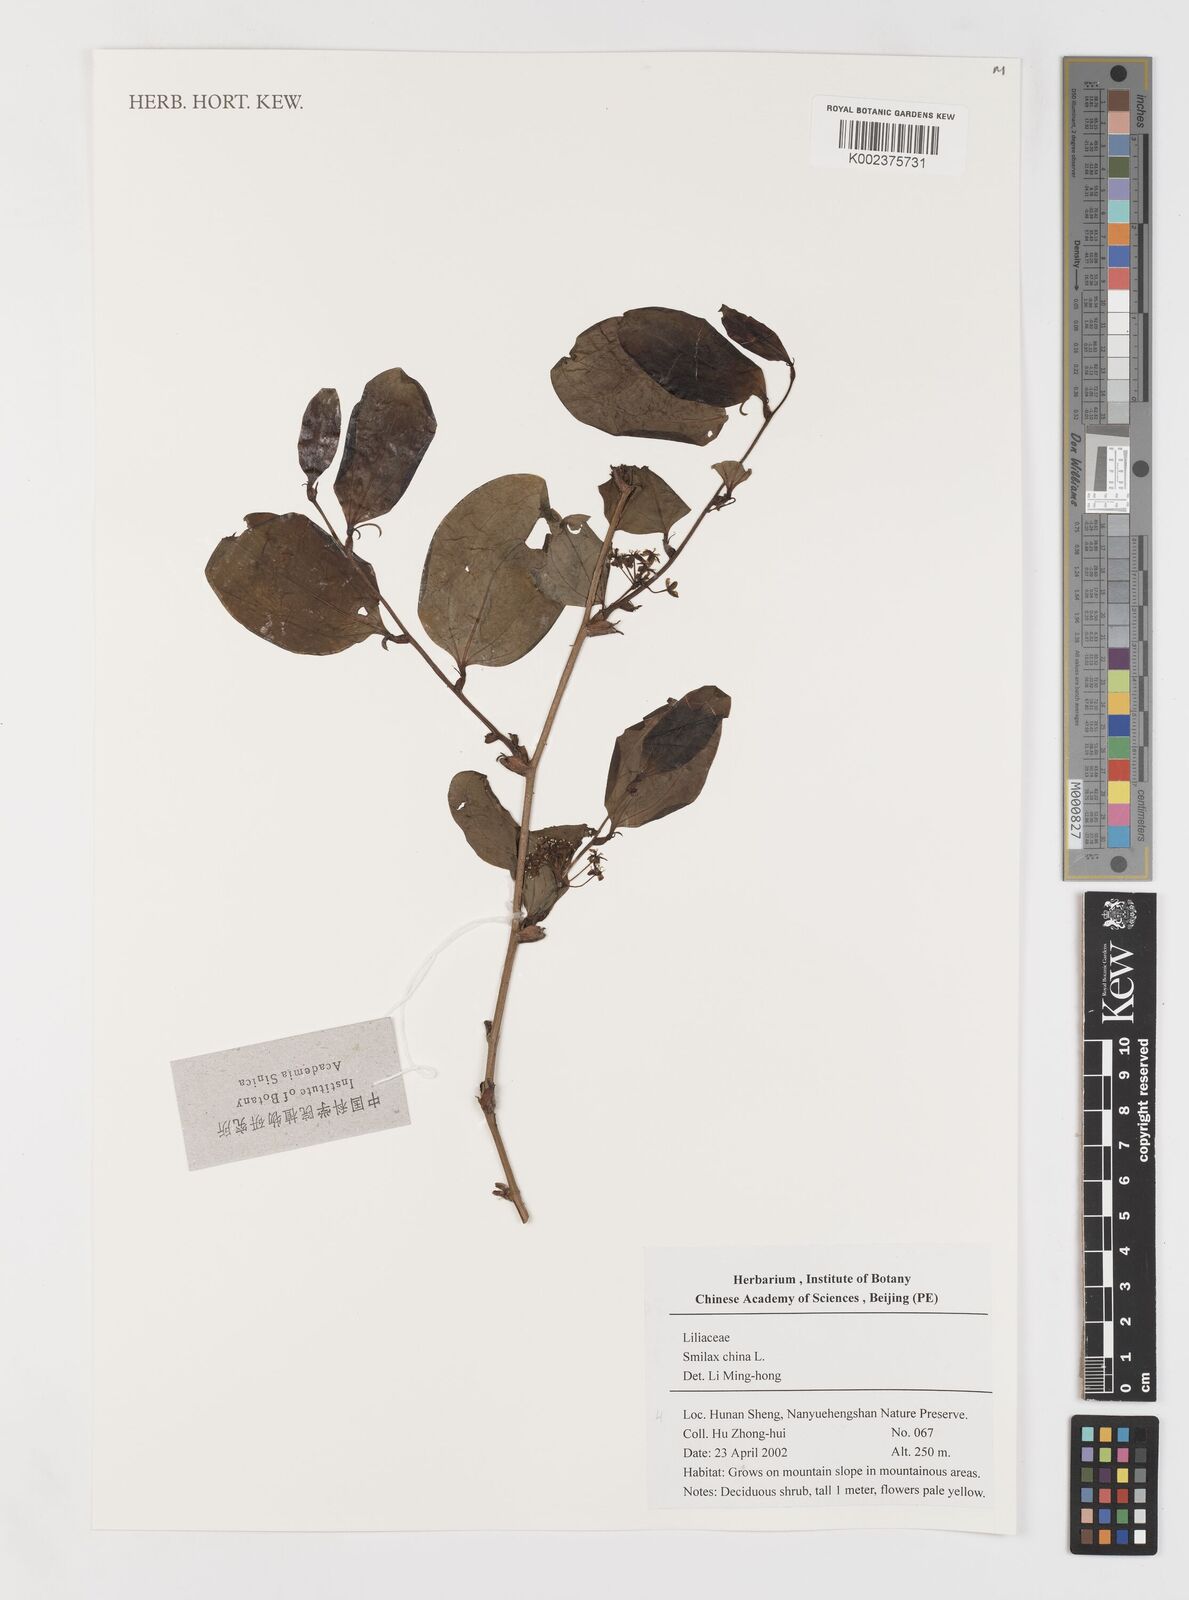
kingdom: Plantae
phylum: Tracheophyta
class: Liliopsida
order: Liliales
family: Smilacaceae
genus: Smilax
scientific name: Smilax china
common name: Chinaroot
